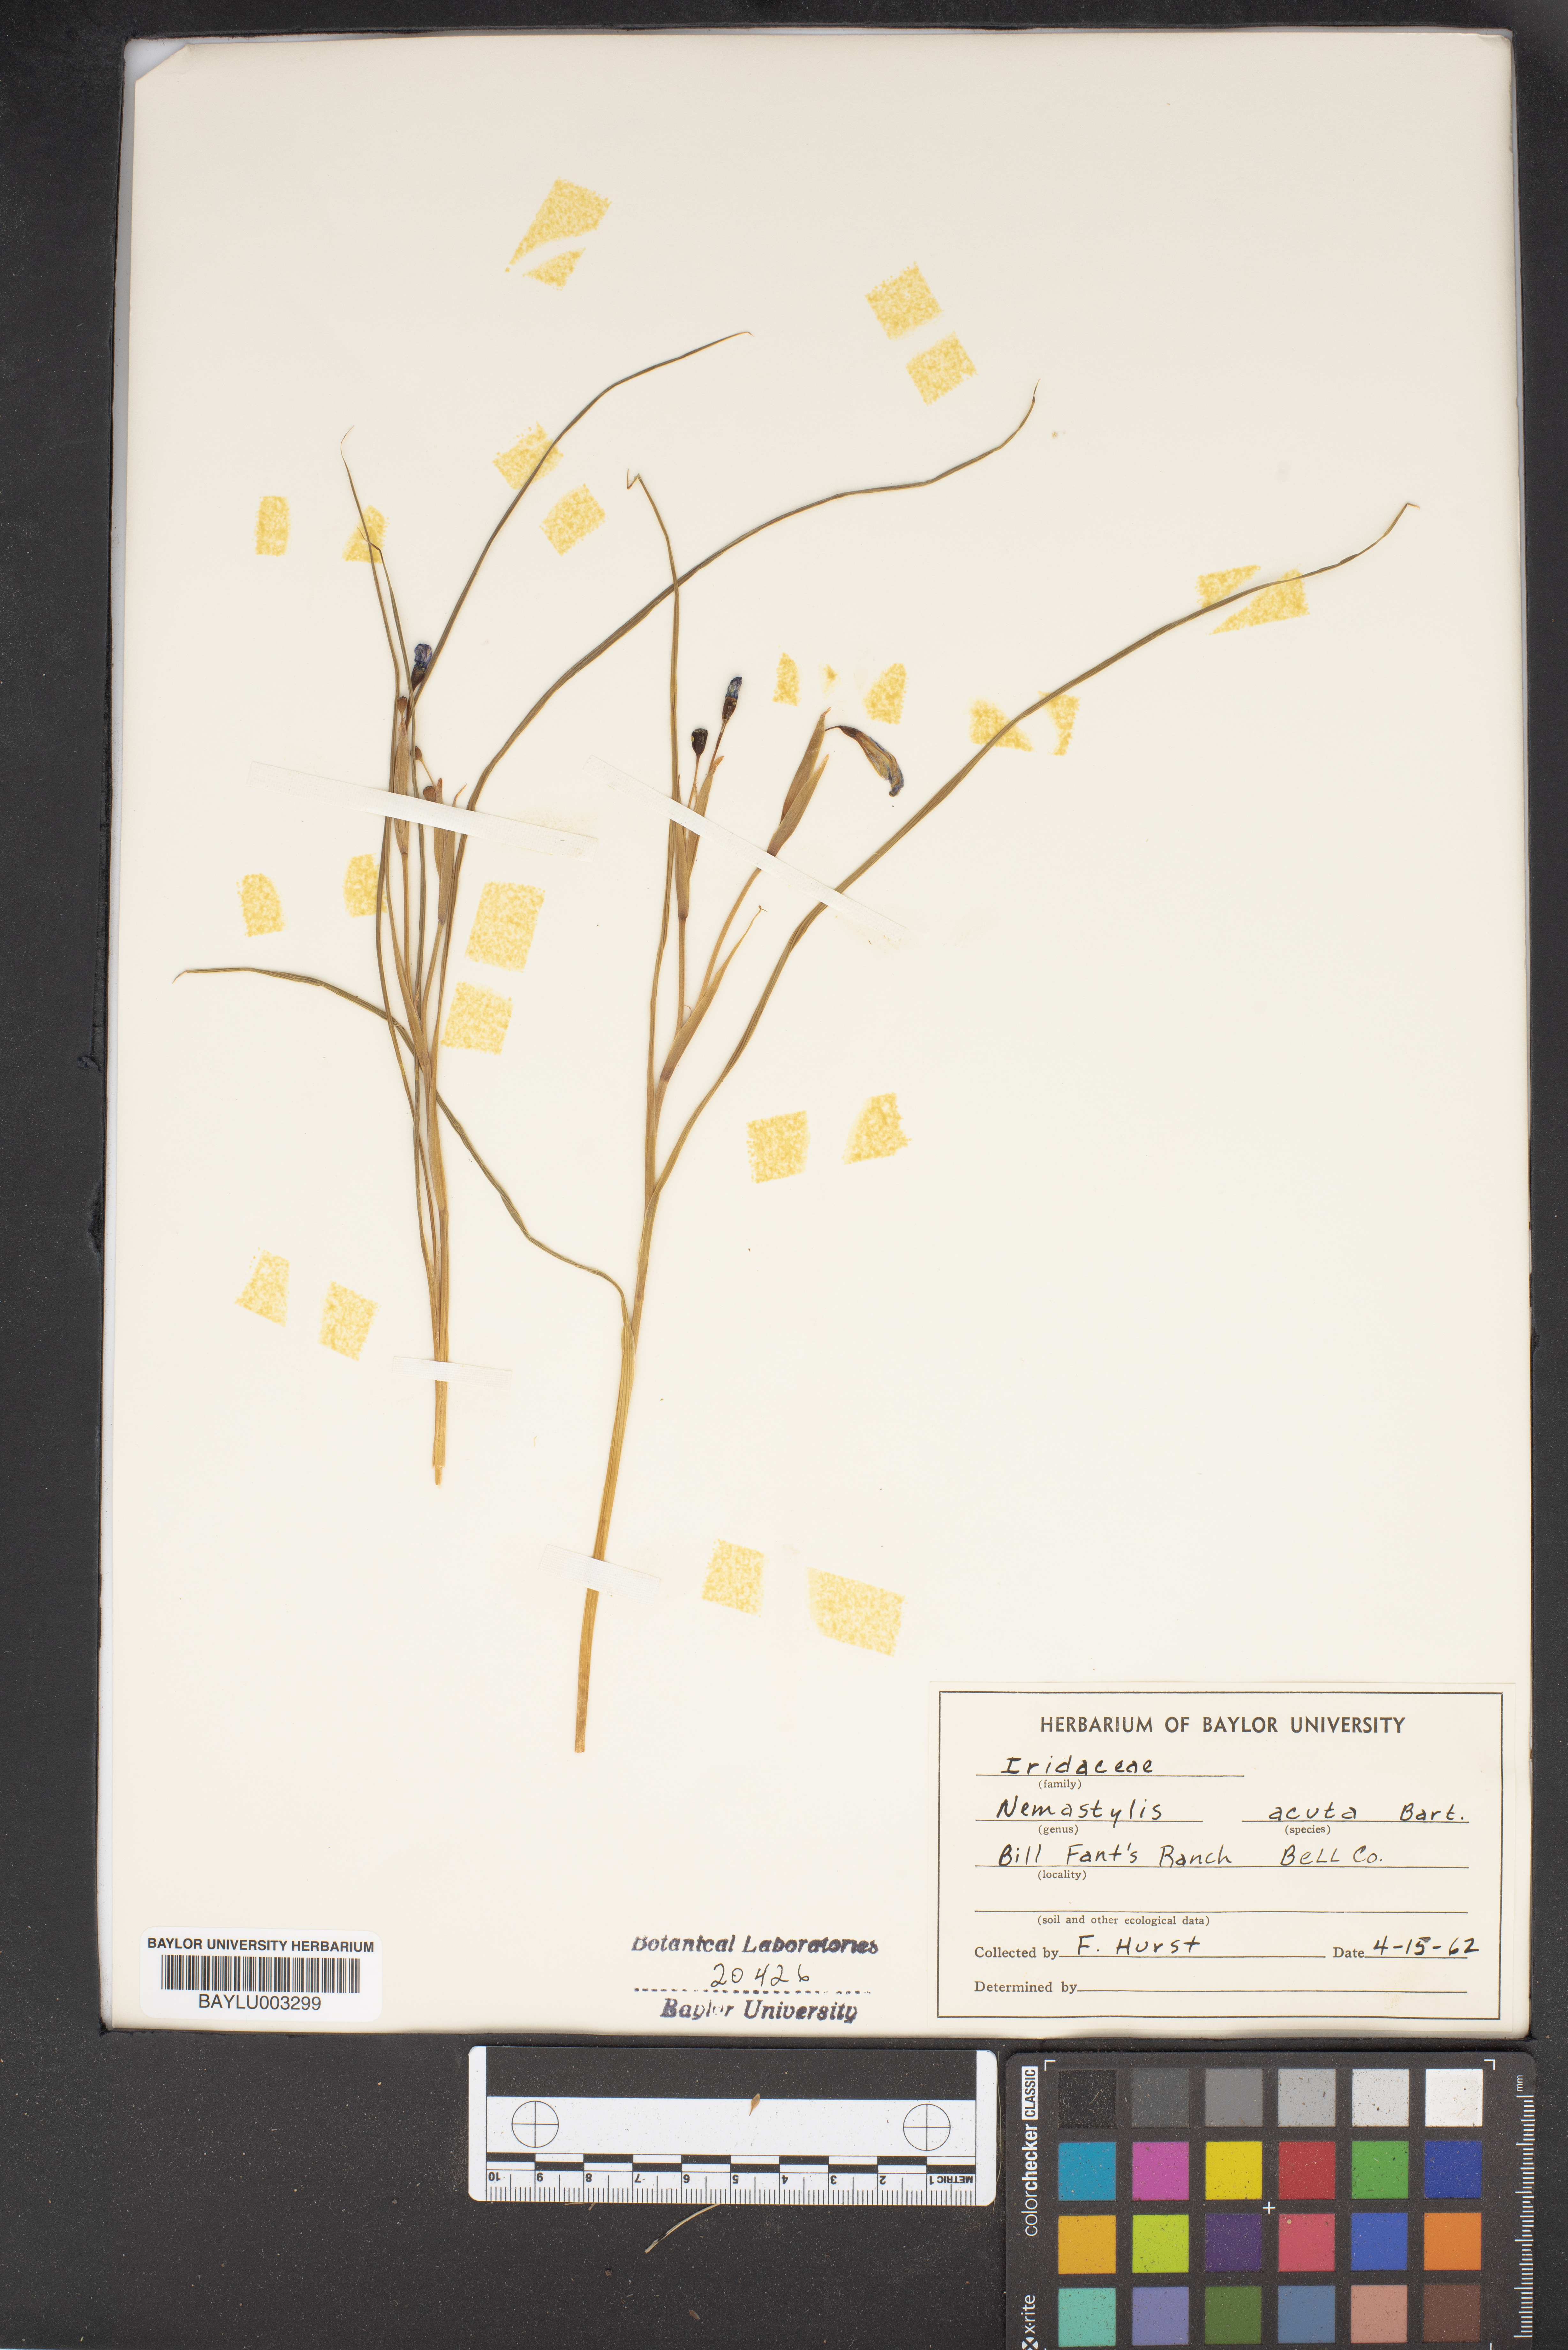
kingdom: Plantae
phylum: Tracheophyta
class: Liliopsida
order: Asparagales
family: Iridaceae
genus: Nemastylis
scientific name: Nemastylis
